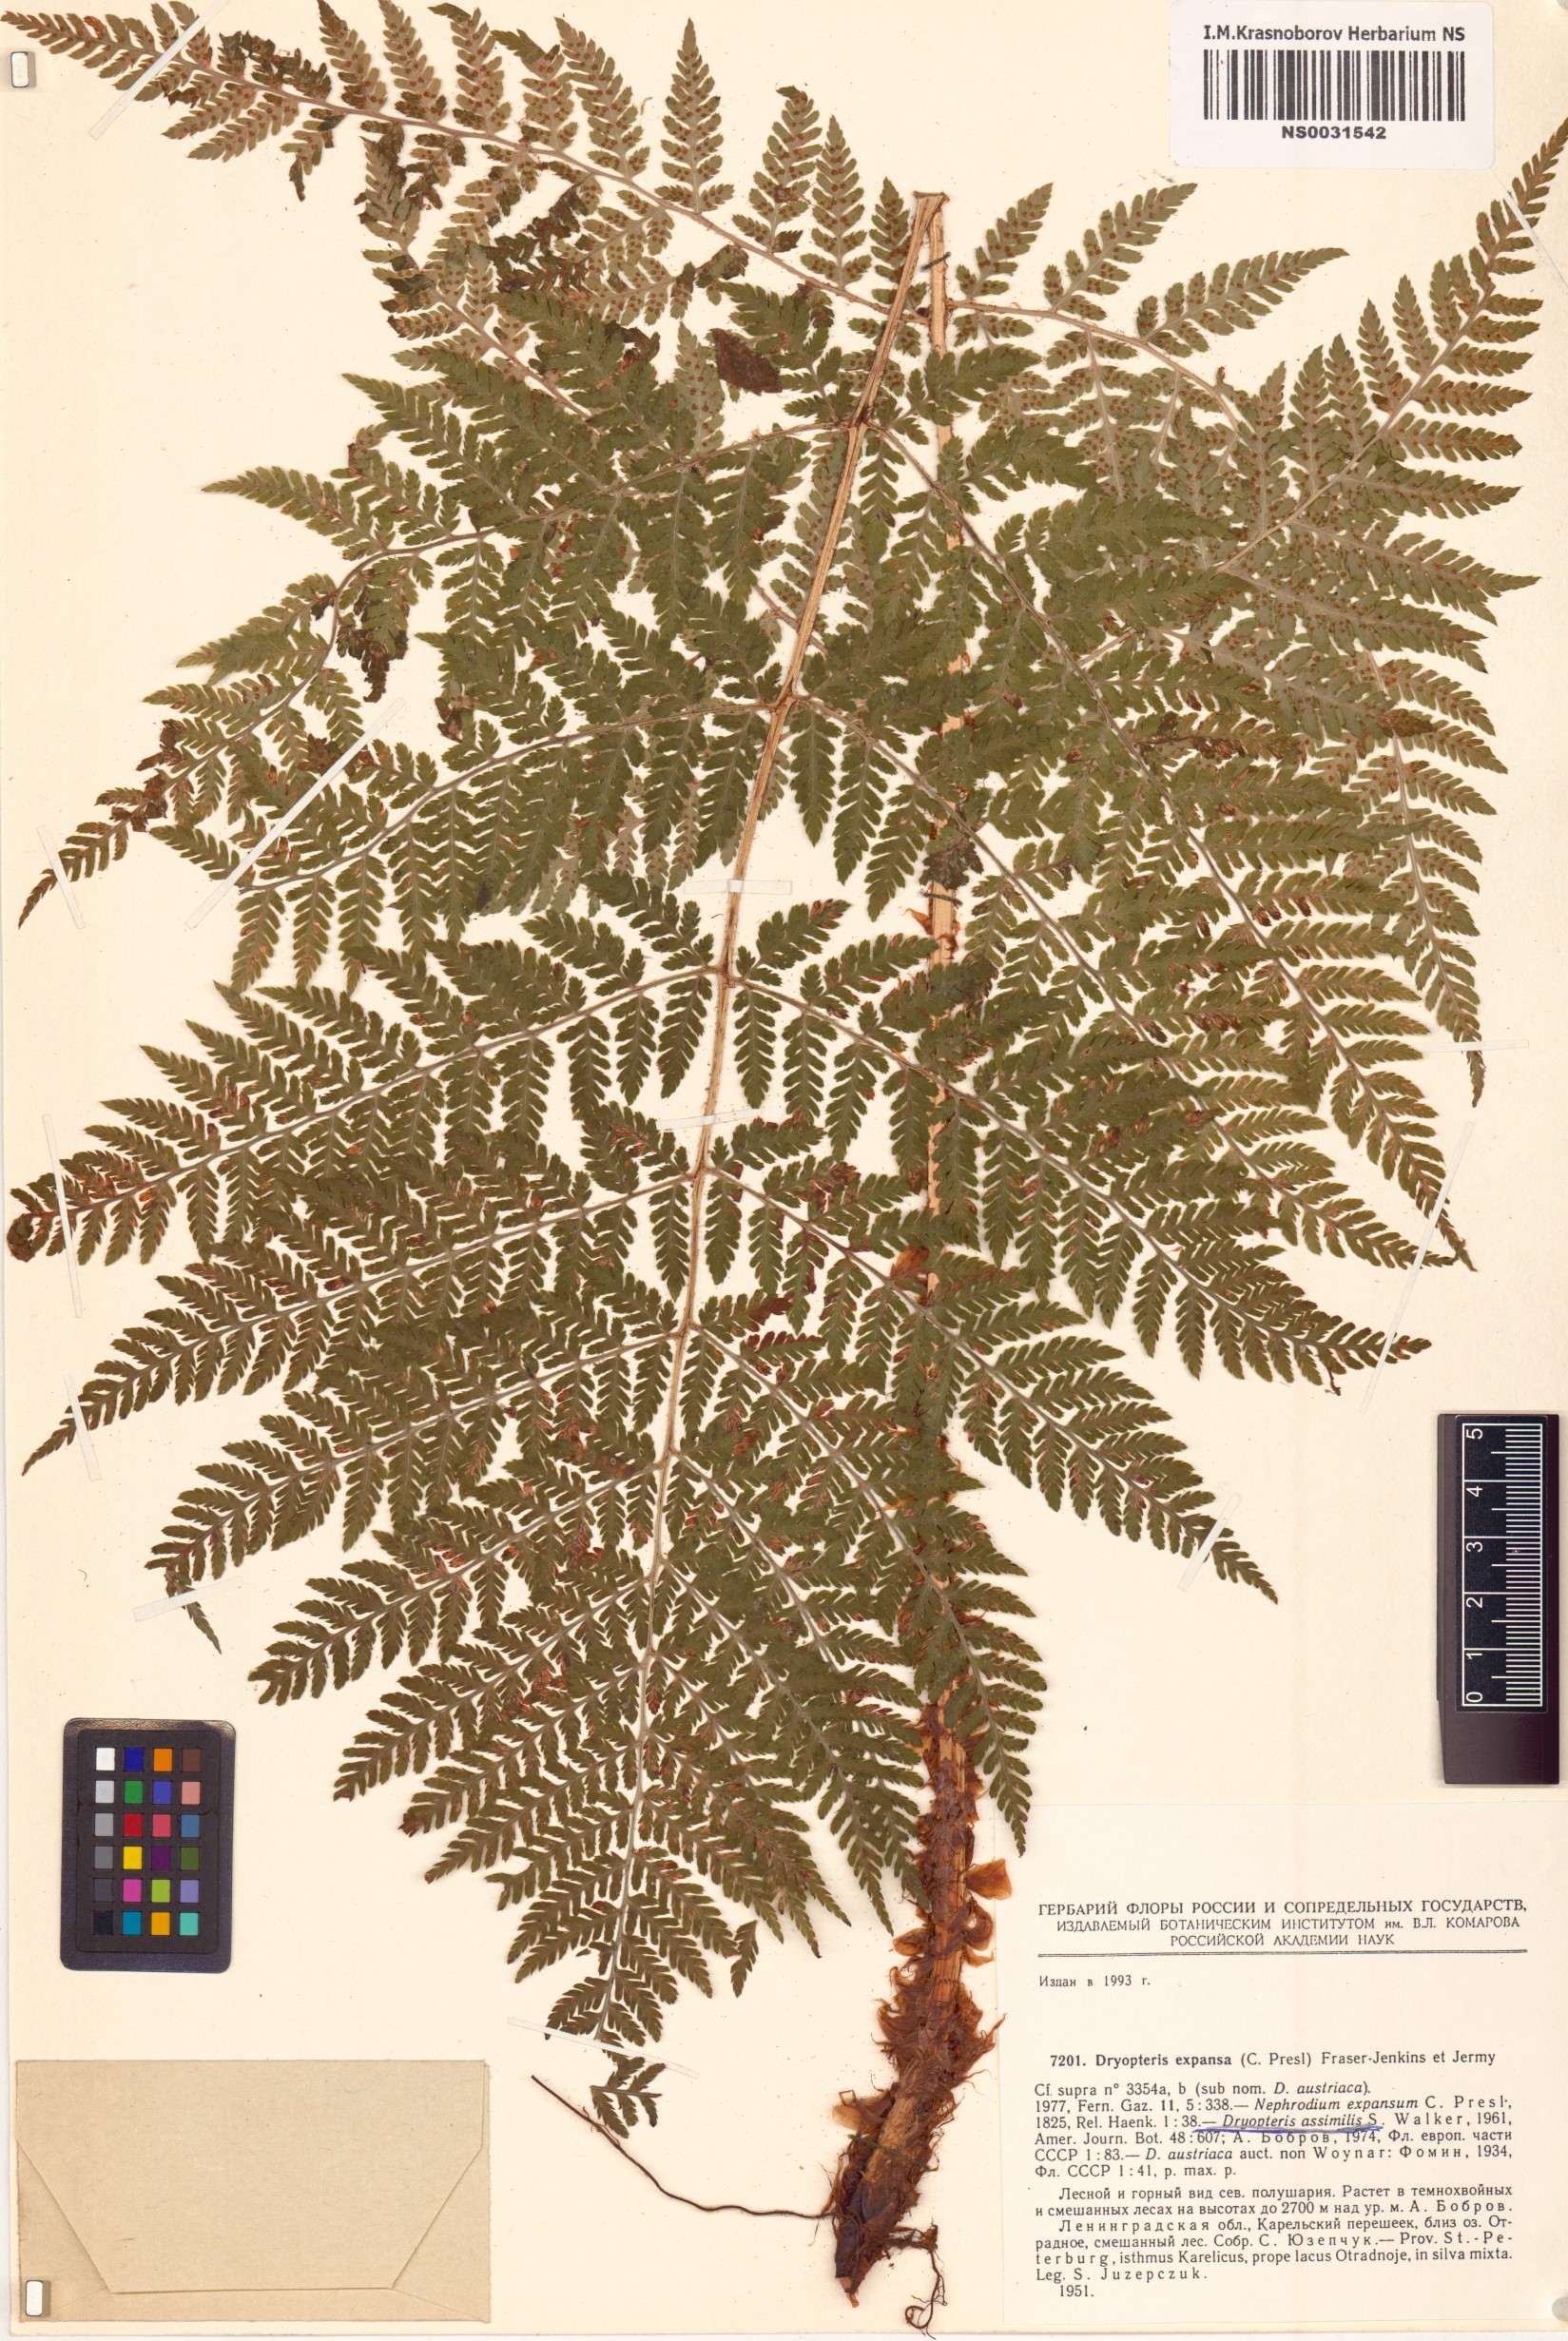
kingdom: Plantae
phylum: Tracheophyta
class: Polypodiopsida
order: Polypodiales
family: Dryopteridaceae
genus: Dryopteris
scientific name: Dryopteris expansa
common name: Northern buckler fern
